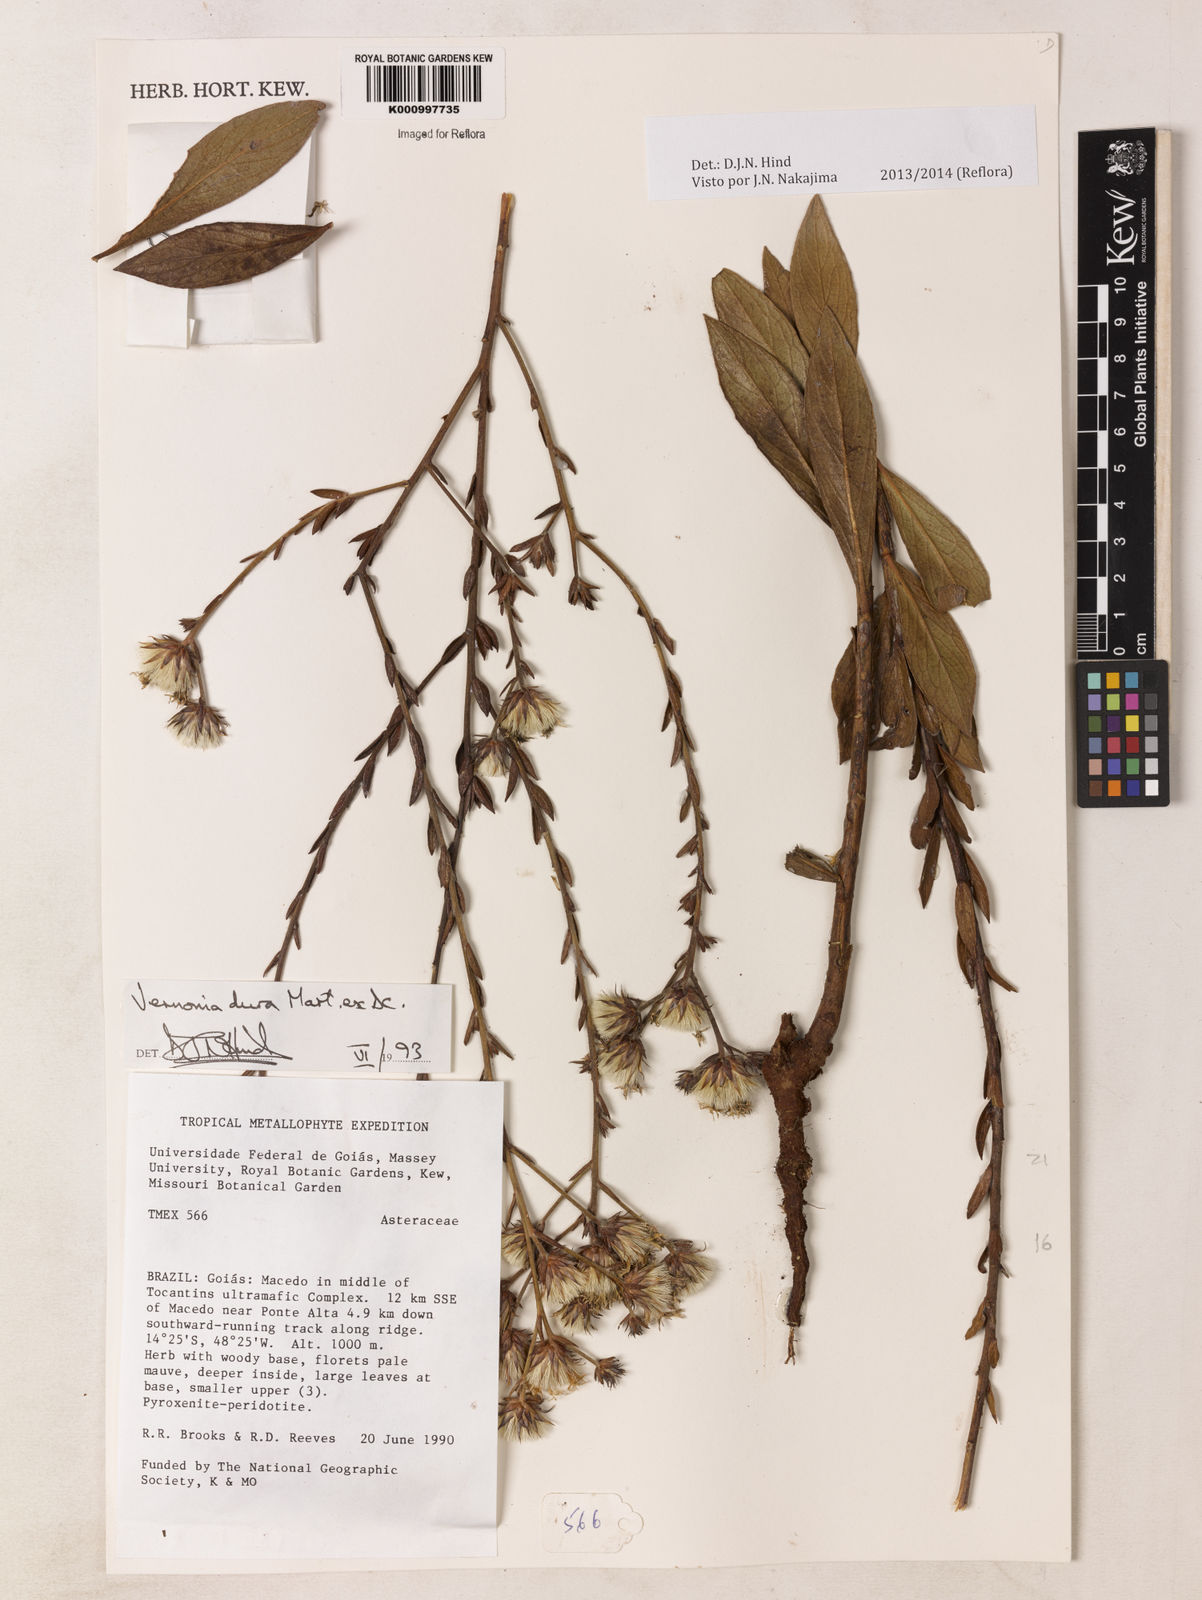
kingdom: Plantae
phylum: Tracheophyta
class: Magnoliopsida
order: Asterales
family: Asteraceae
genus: Lessingianthus
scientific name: Lessingianthus durus
